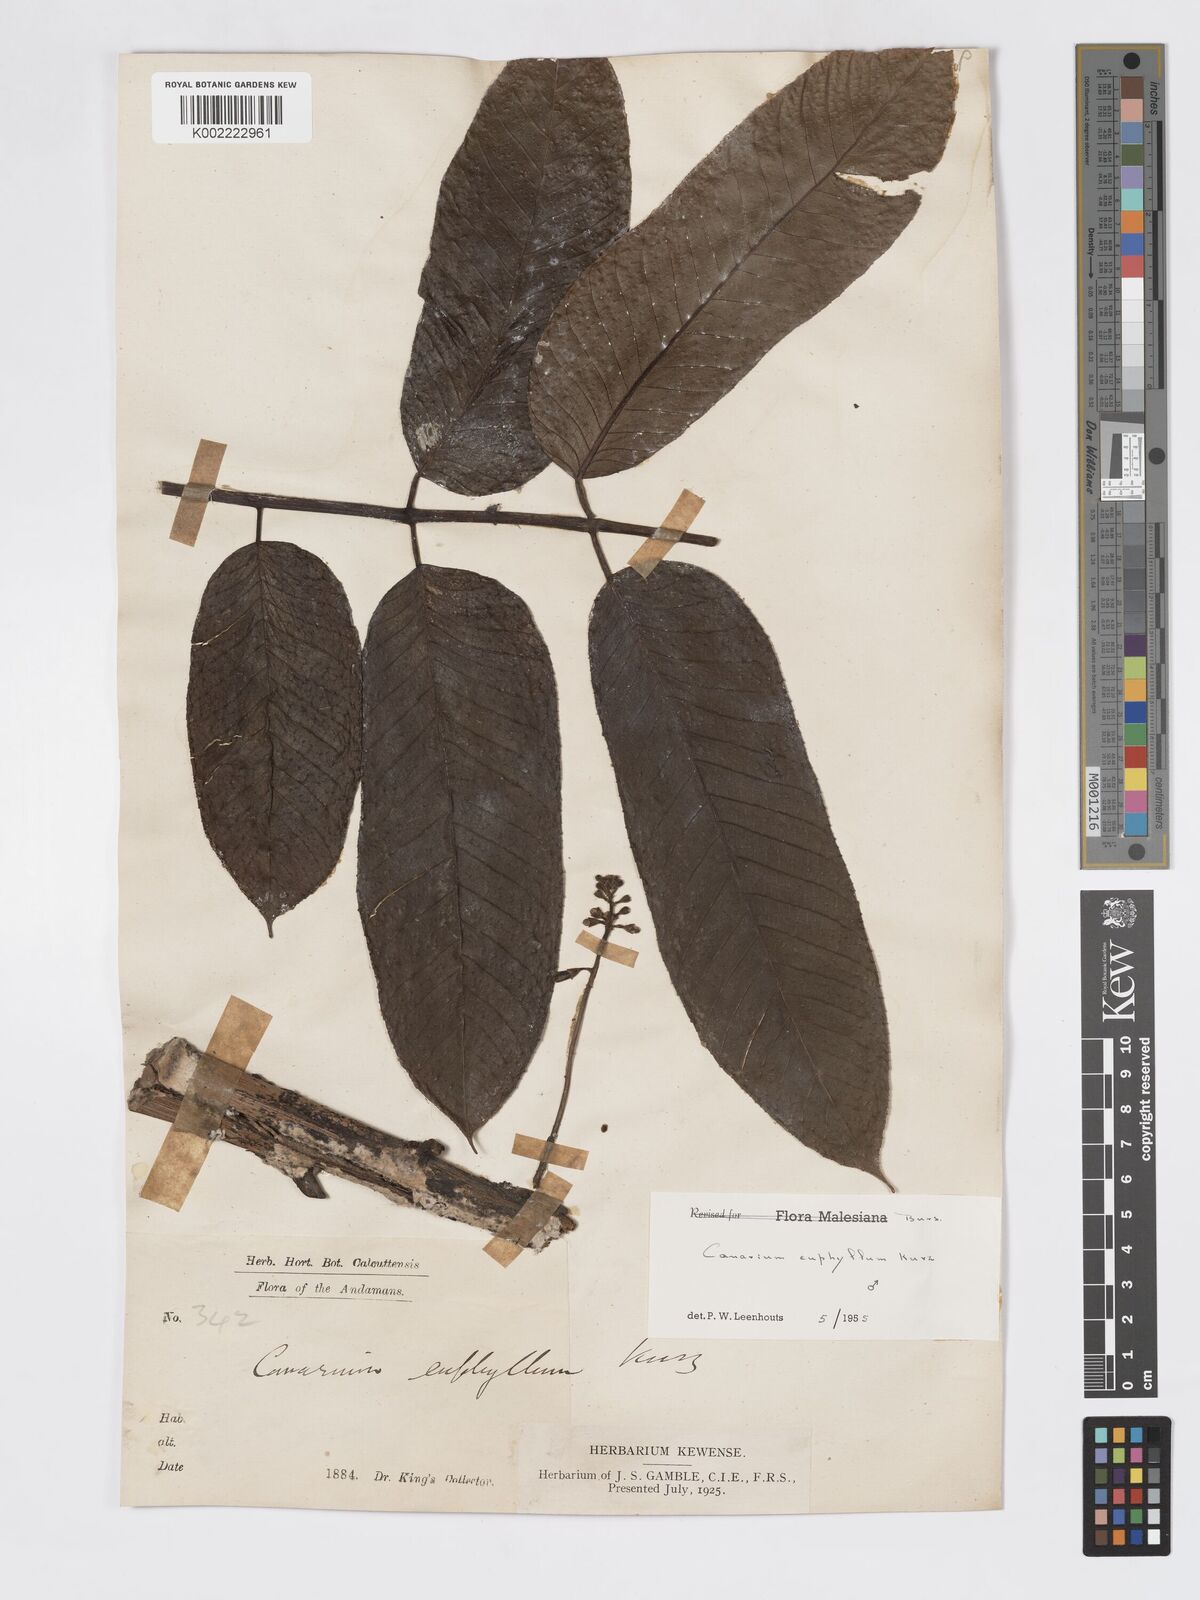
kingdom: Plantae
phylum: Tracheophyta
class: Magnoliopsida
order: Sapindales
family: Burseraceae
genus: Canarium
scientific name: Canarium euphyllum
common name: White dhup
